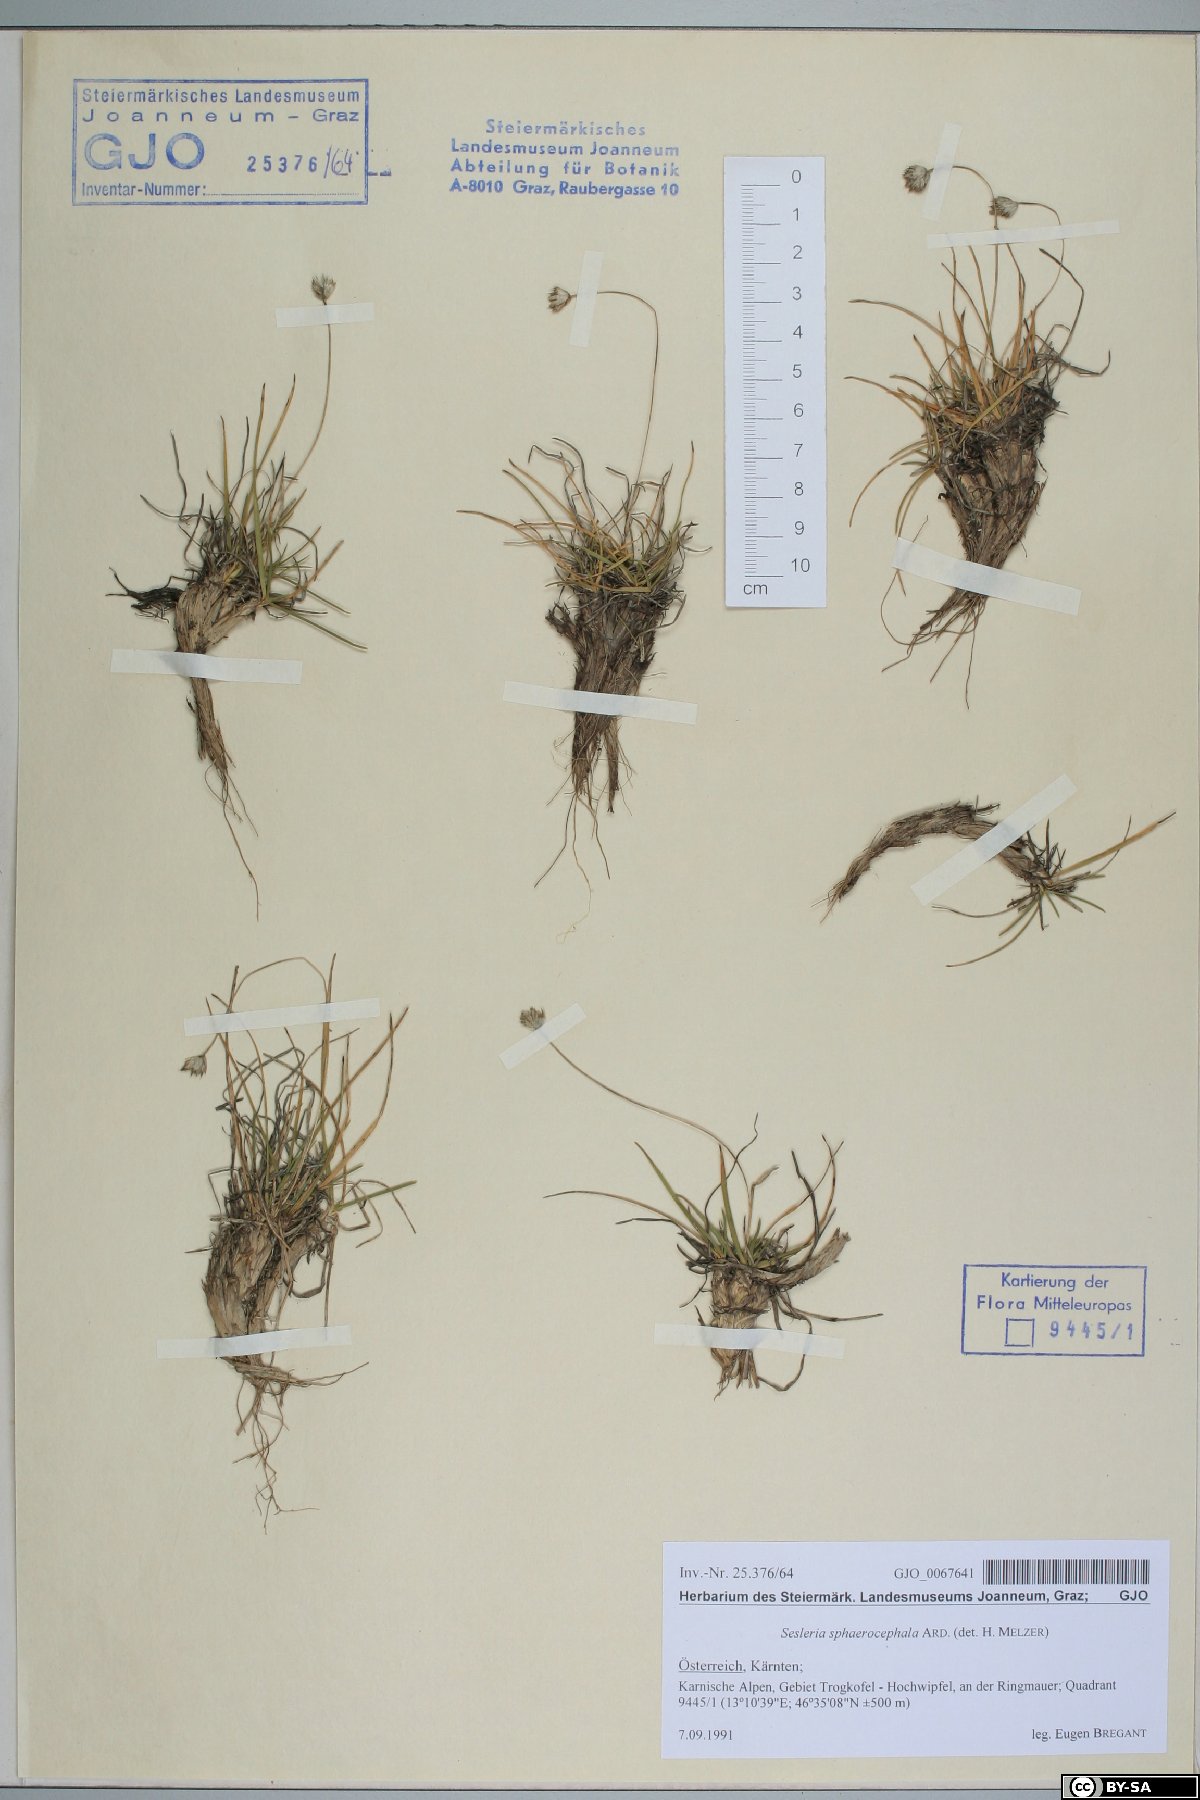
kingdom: Plantae
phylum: Tracheophyta
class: Liliopsida
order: Poales
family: Poaceae
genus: Sesleriella
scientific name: Sesleriella sphaerocephala
